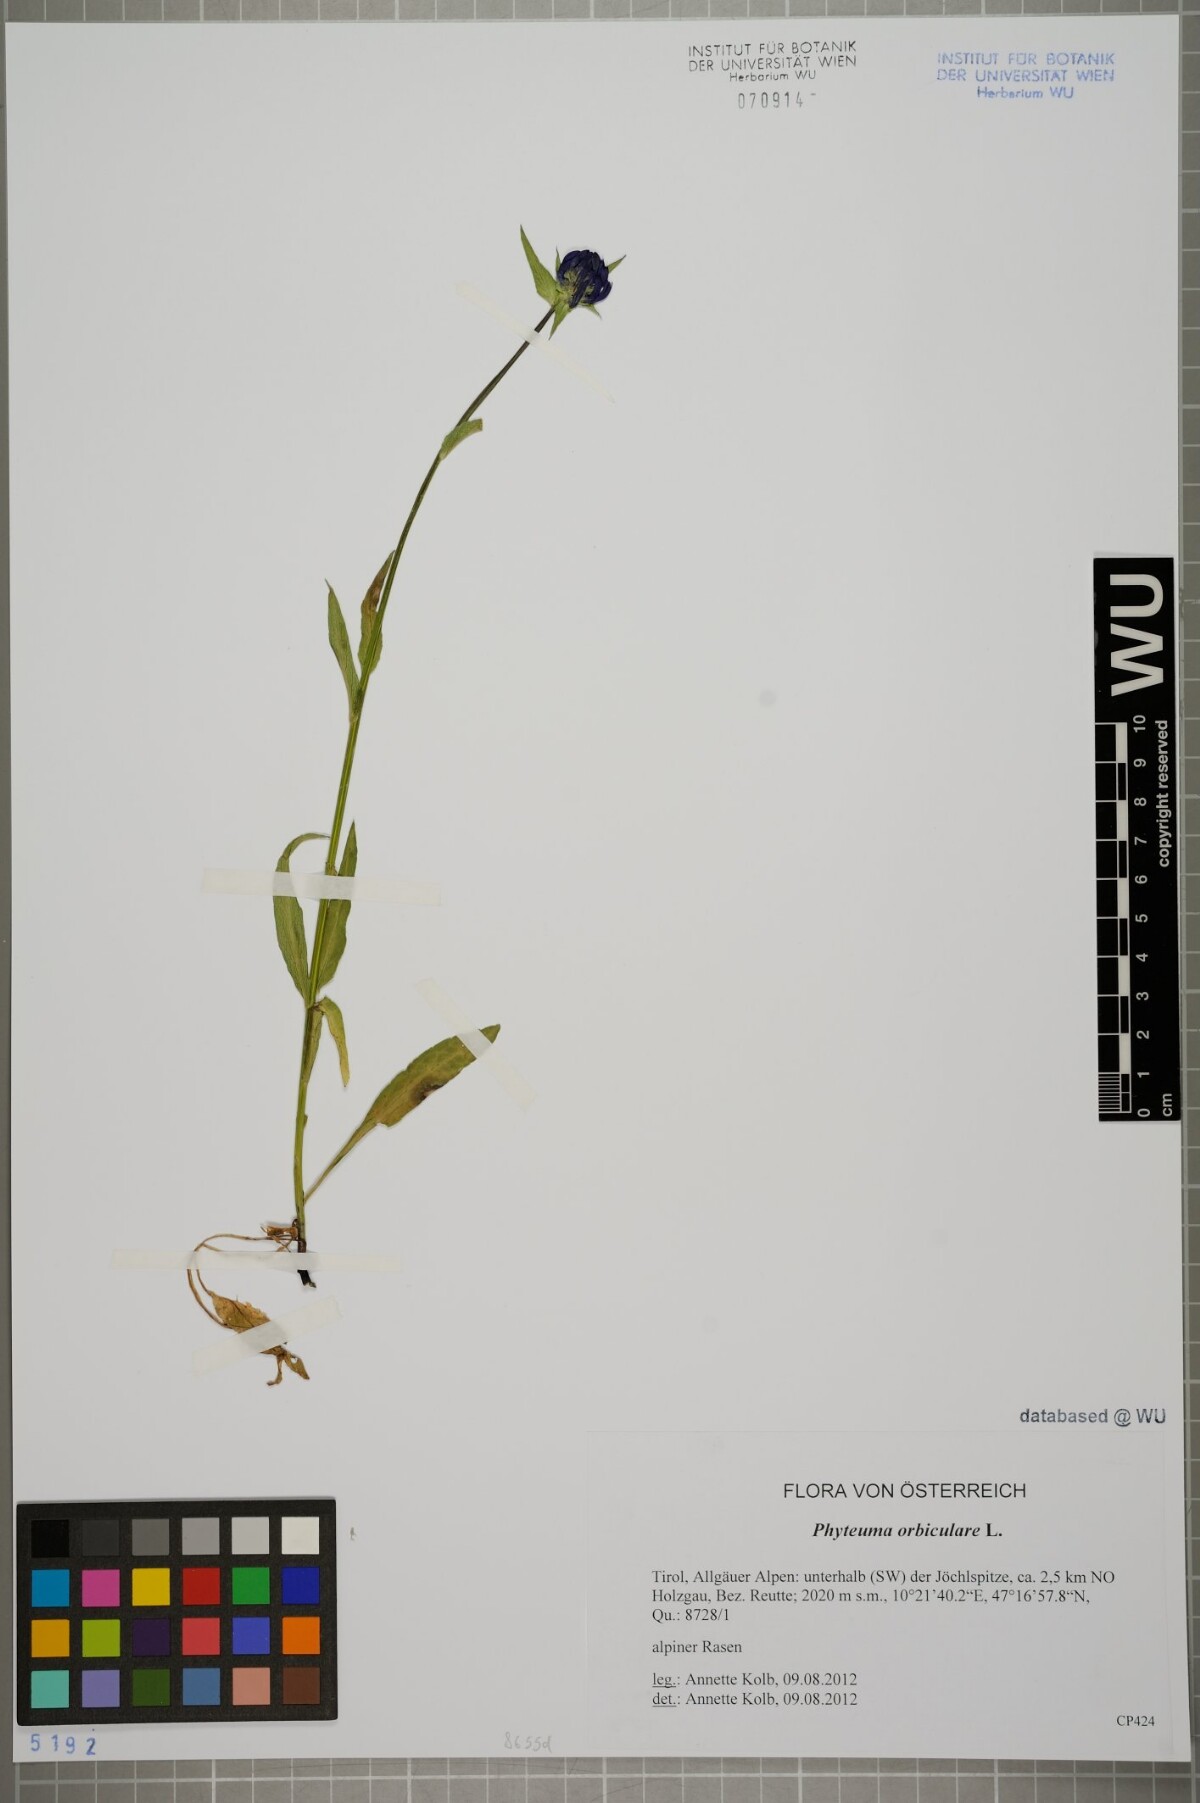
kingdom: Plantae
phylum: Tracheophyta
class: Magnoliopsida
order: Asterales
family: Campanulaceae
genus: Phyteuma
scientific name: Phyteuma orbiculare
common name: Round-headed rampion
